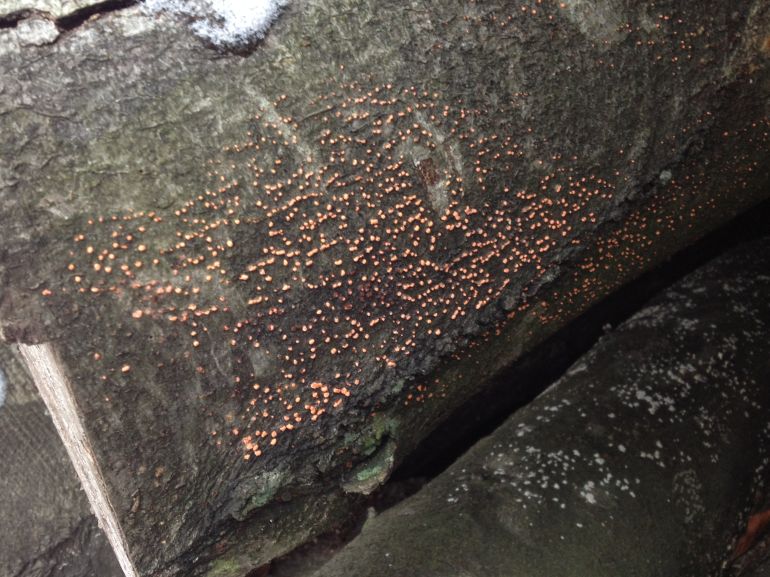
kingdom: Fungi
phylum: Ascomycota
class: Sordariomycetes
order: Hypocreales
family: Nectriaceae
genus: Nectria
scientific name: Nectria cinnabarina
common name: almindelig cinnobersvamp
